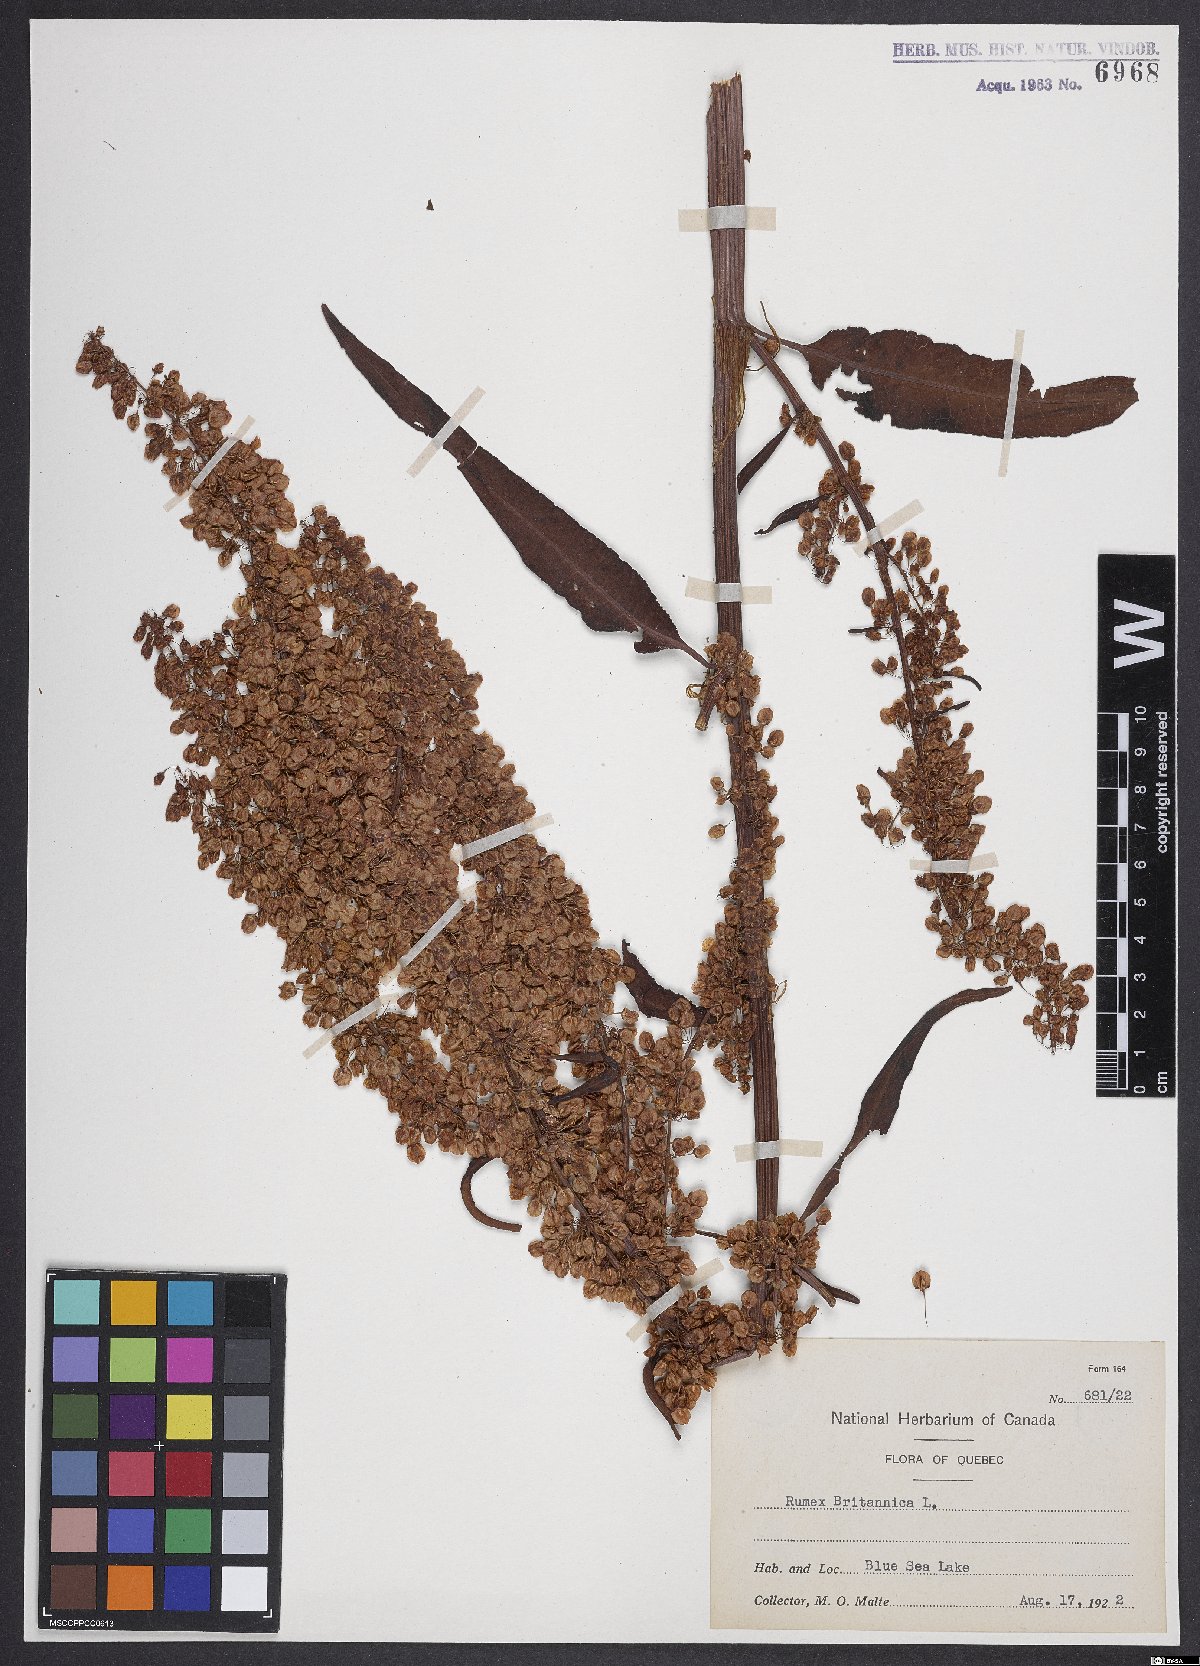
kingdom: Plantae
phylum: Tracheophyta
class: Magnoliopsida
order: Caryophyllales
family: Polygonaceae
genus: Rumex
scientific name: Rumex britannica
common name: British dock
